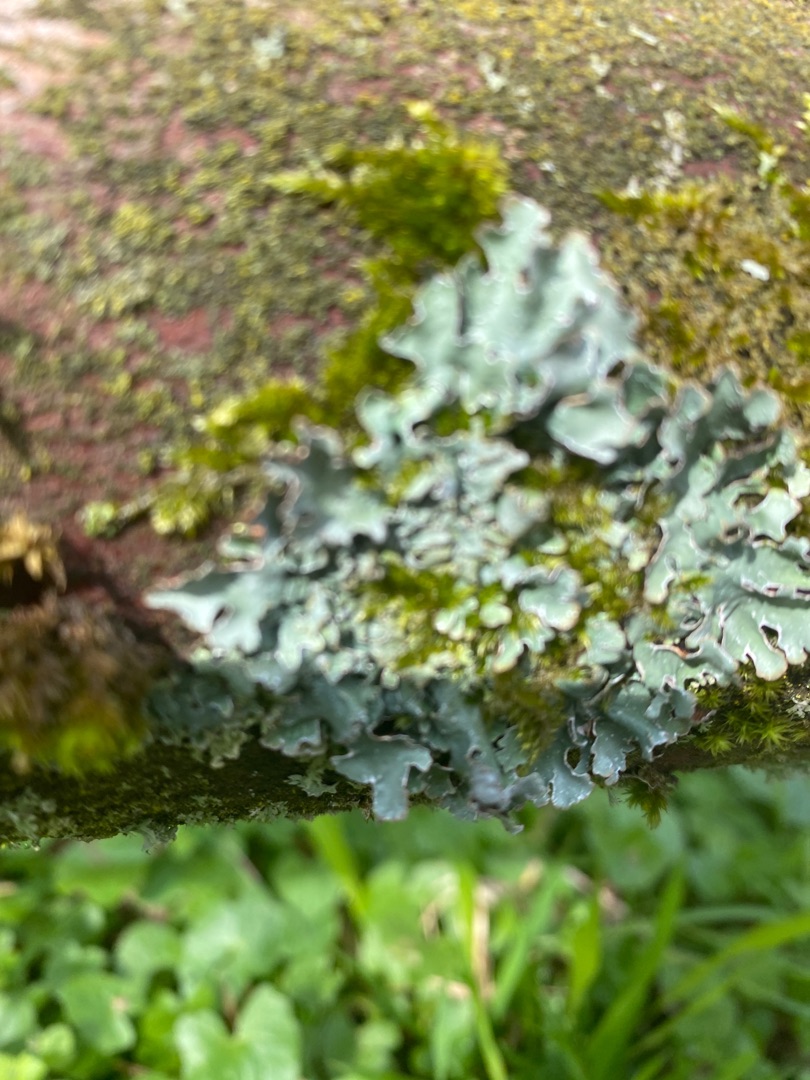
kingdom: Fungi
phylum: Ascomycota
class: Lecanoromycetes
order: Lecanorales
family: Parmeliaceae
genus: Parmelia
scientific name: Parmelia sulcata
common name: Rynket skållav
